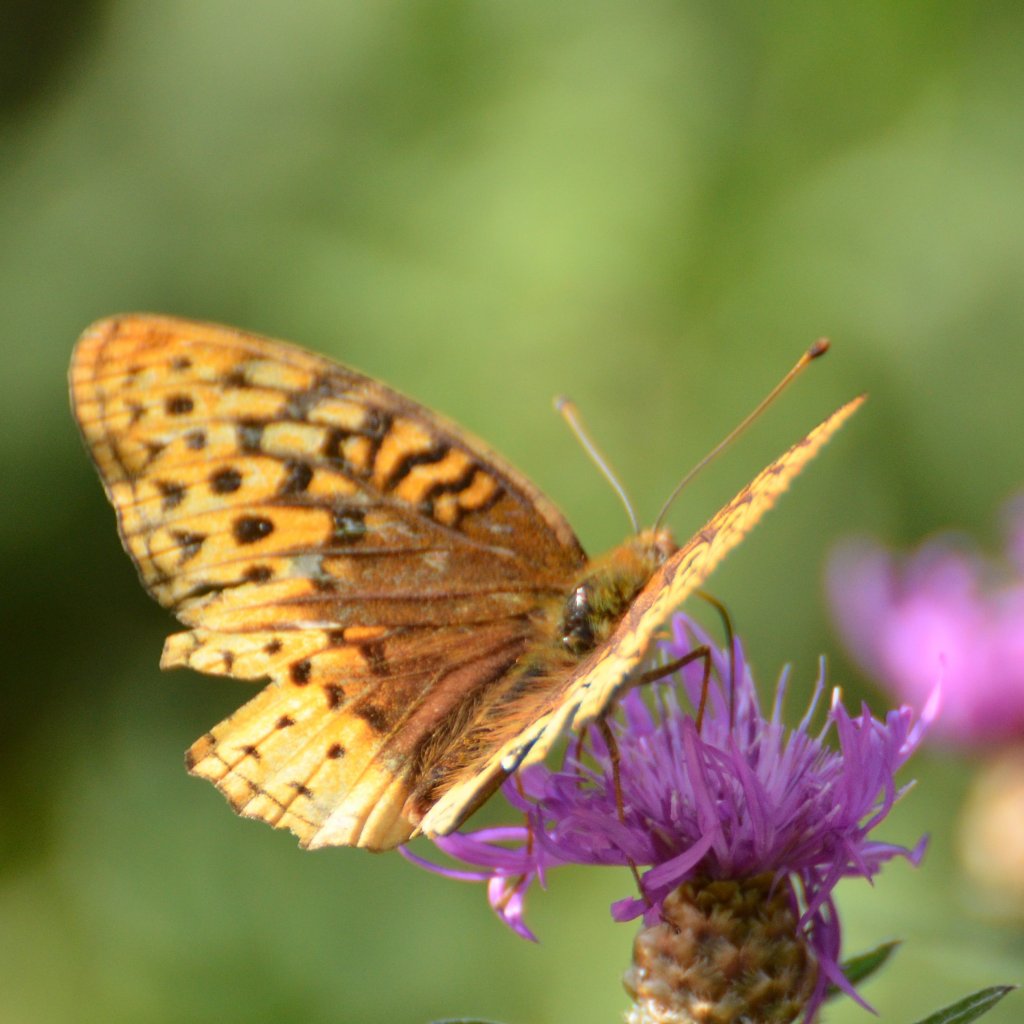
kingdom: Animalia
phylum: Arthropoda
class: Insecta
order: Lepidoptera
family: Nymphalidae
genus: Speyeria
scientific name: Speyeria cybele
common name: Great Spangled Fritillary
